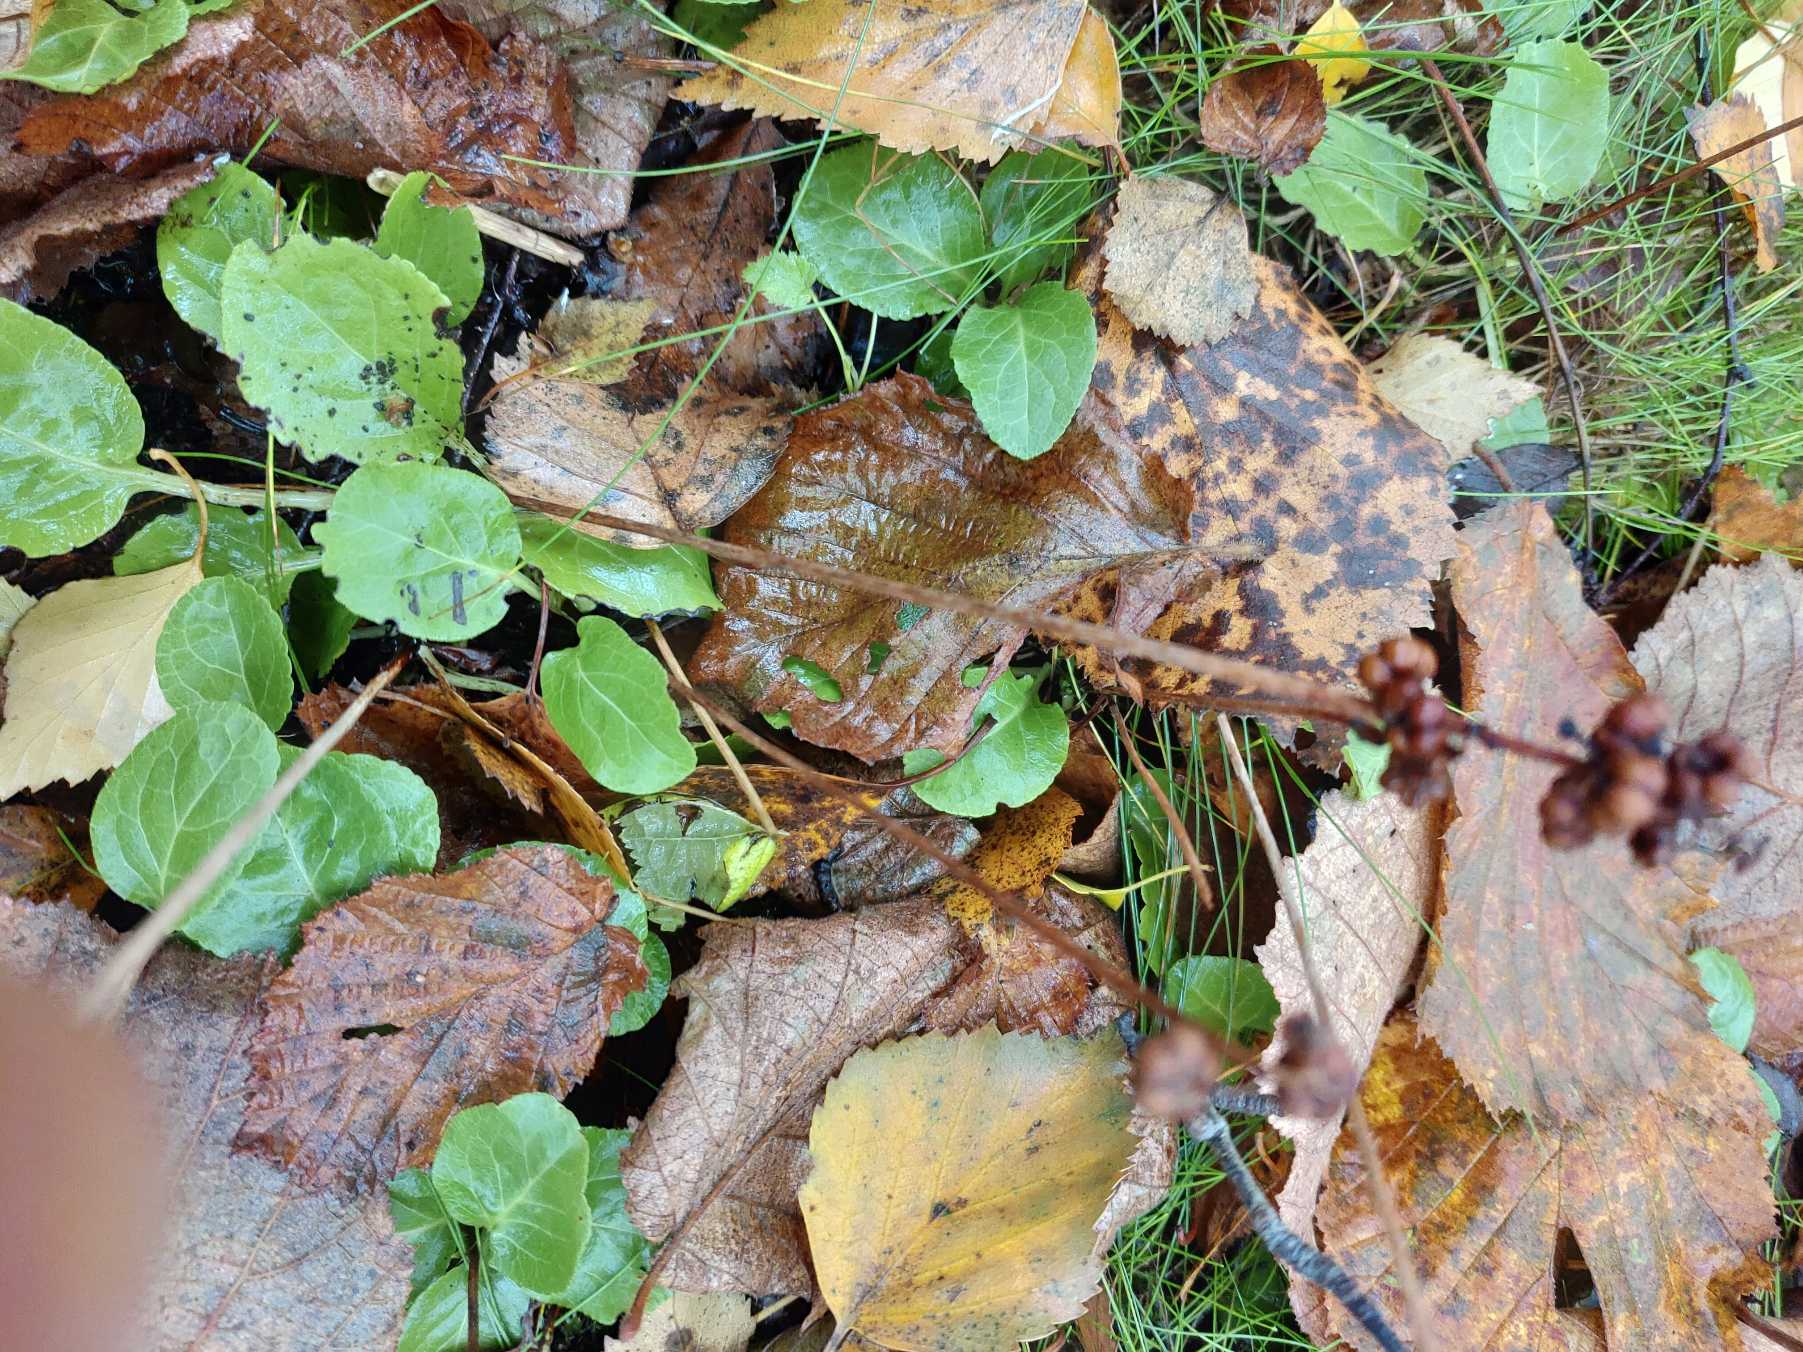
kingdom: Plantae
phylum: Tracheophyta
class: Magnoliopsida
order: Ericales
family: Ericaceae
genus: Pyrola
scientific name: Pyrola minor
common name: Liden vintergrøn
